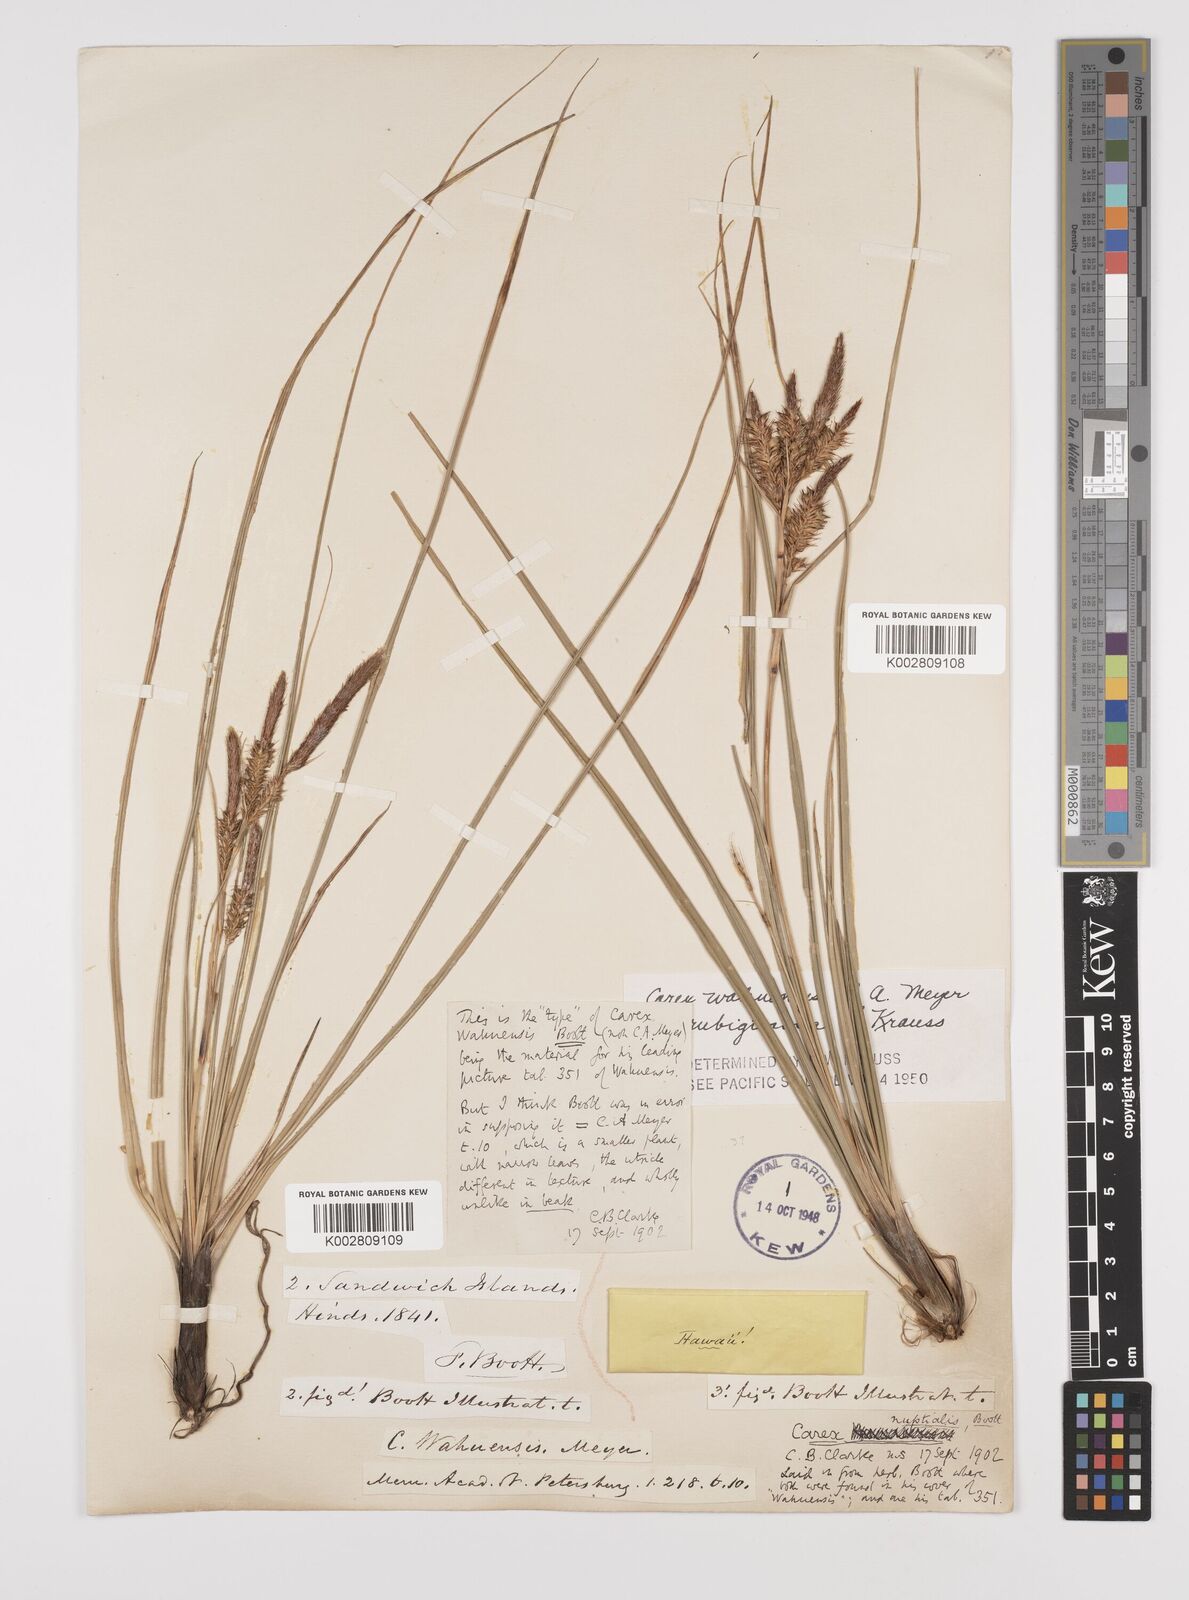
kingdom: Plantae
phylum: Tracheophyta
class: Liliopsida
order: Poales
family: Cyperaceae
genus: Carex
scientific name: Carex wahuensis
